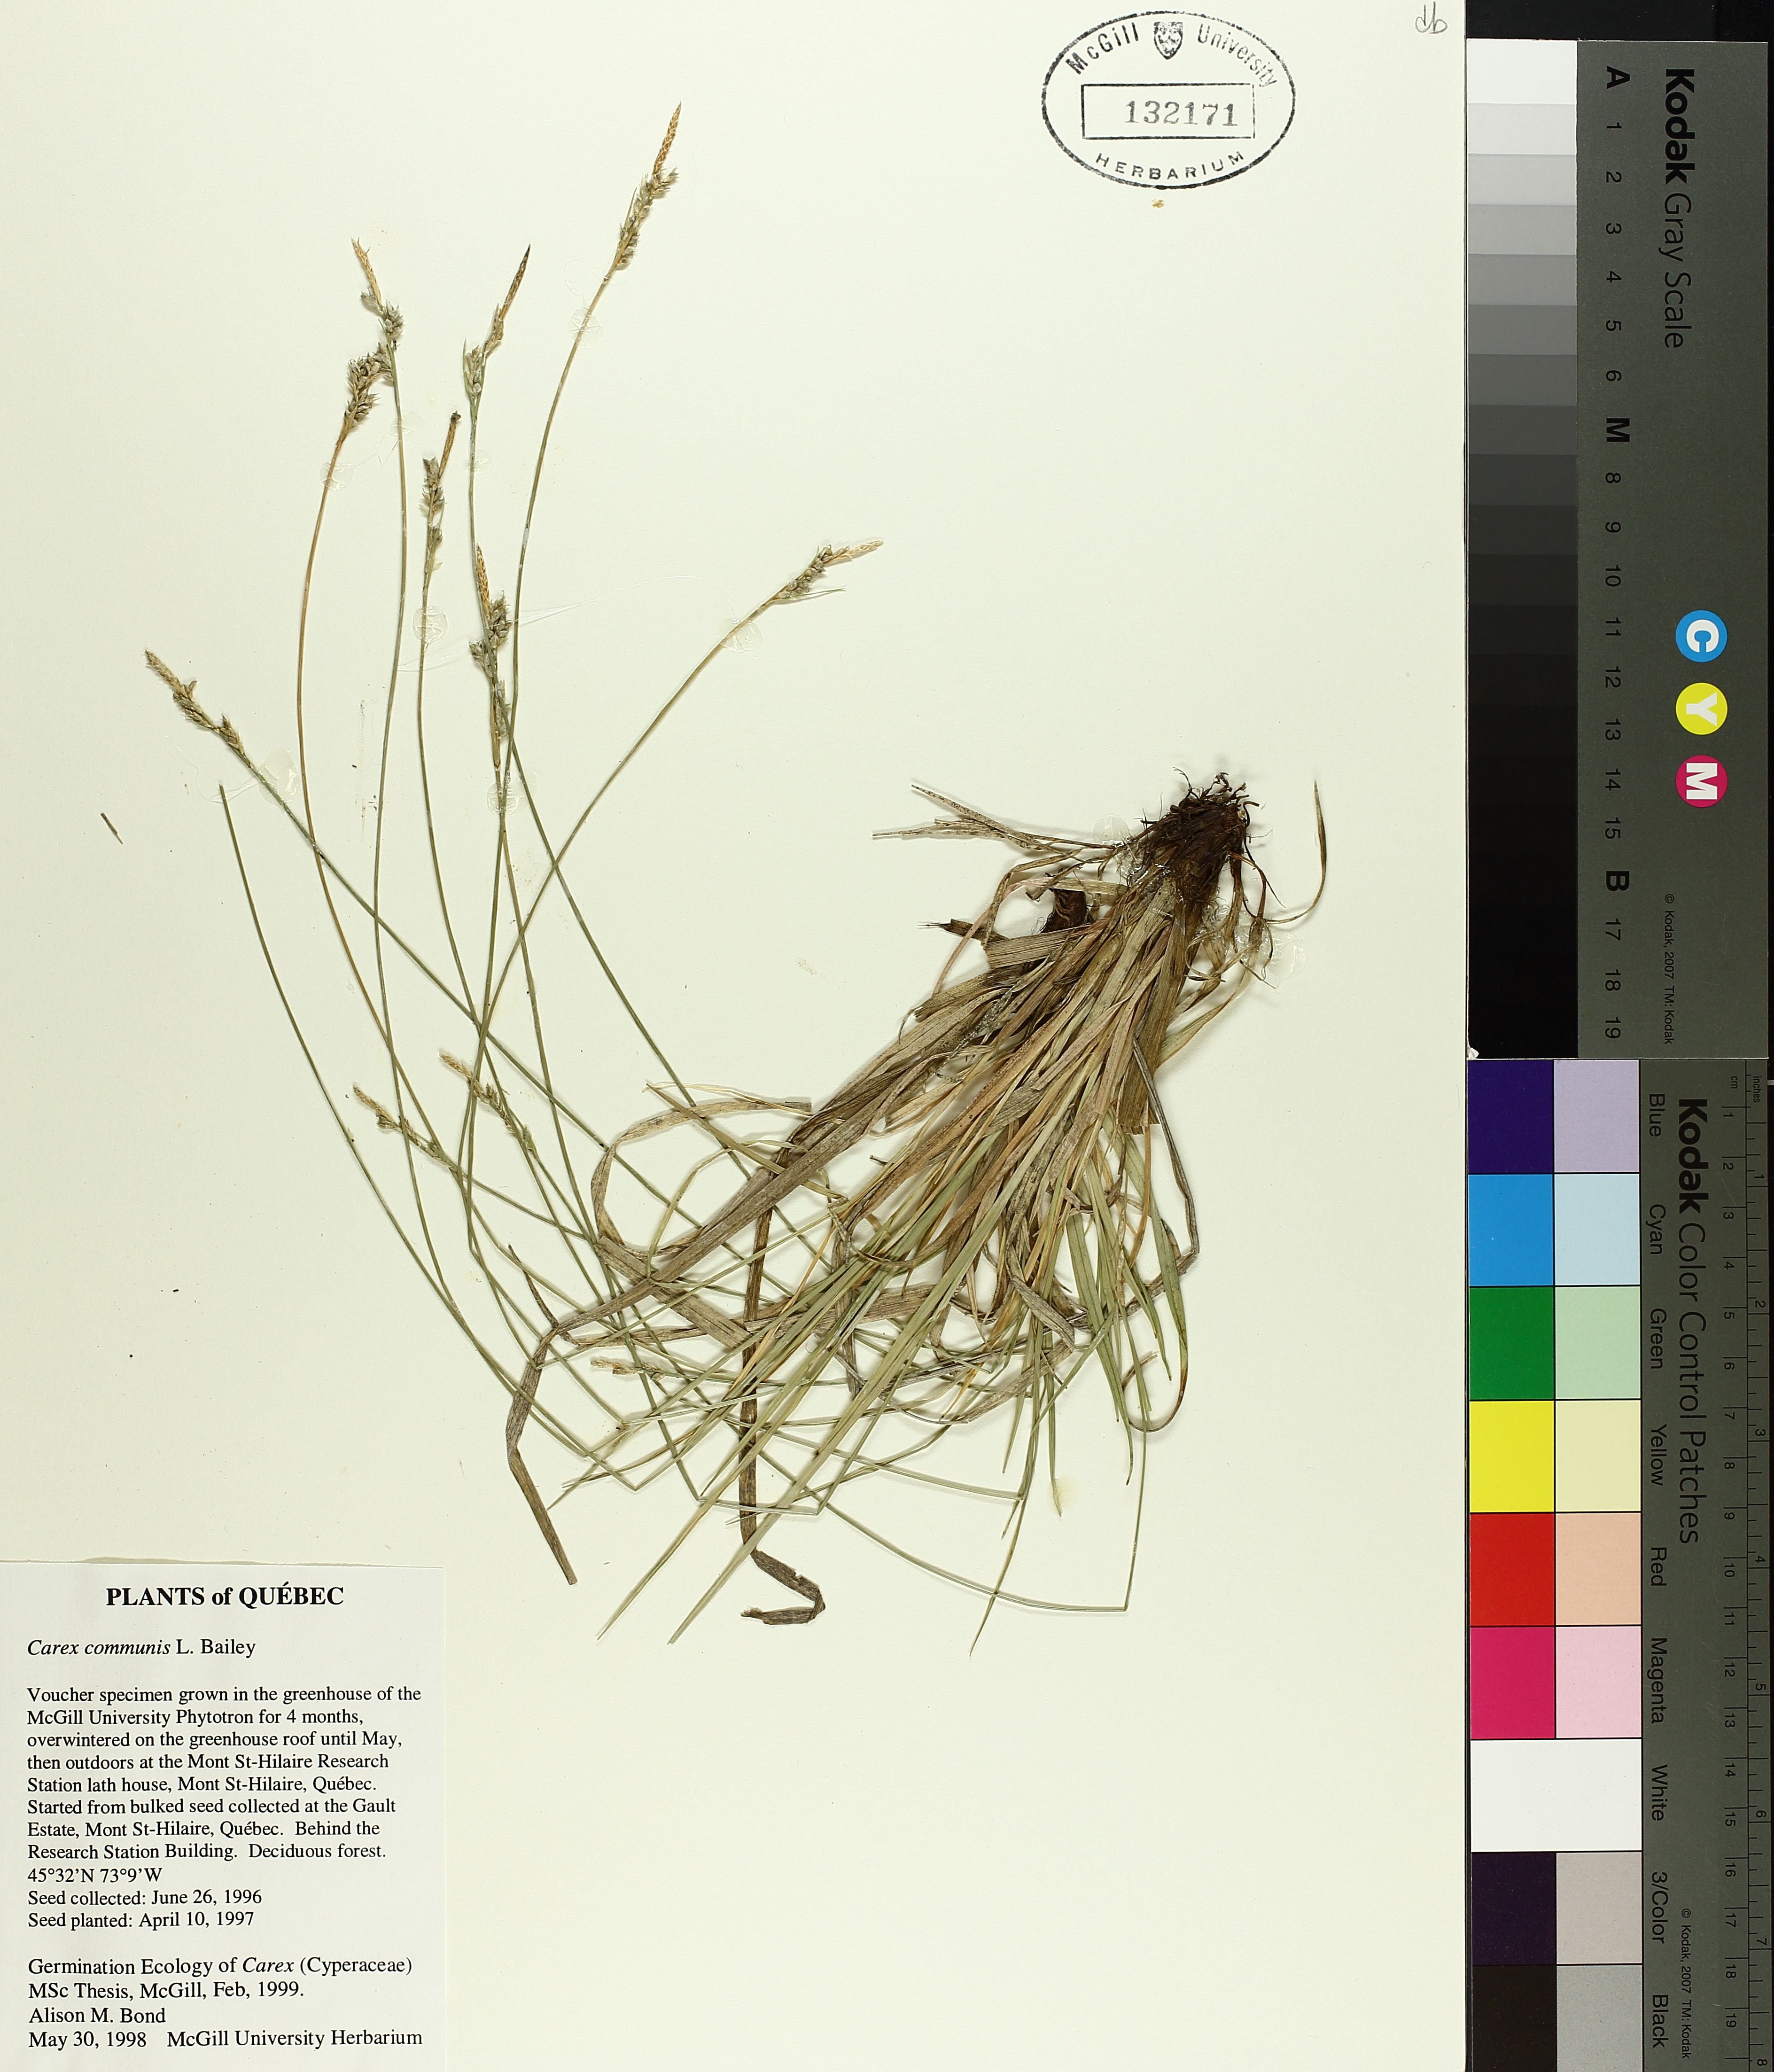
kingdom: Plantae
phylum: Tracheophyta
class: Liliopsida
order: Poales
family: Cyperaceae
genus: Carex
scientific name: Carex communis
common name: Colonial oak sedge
